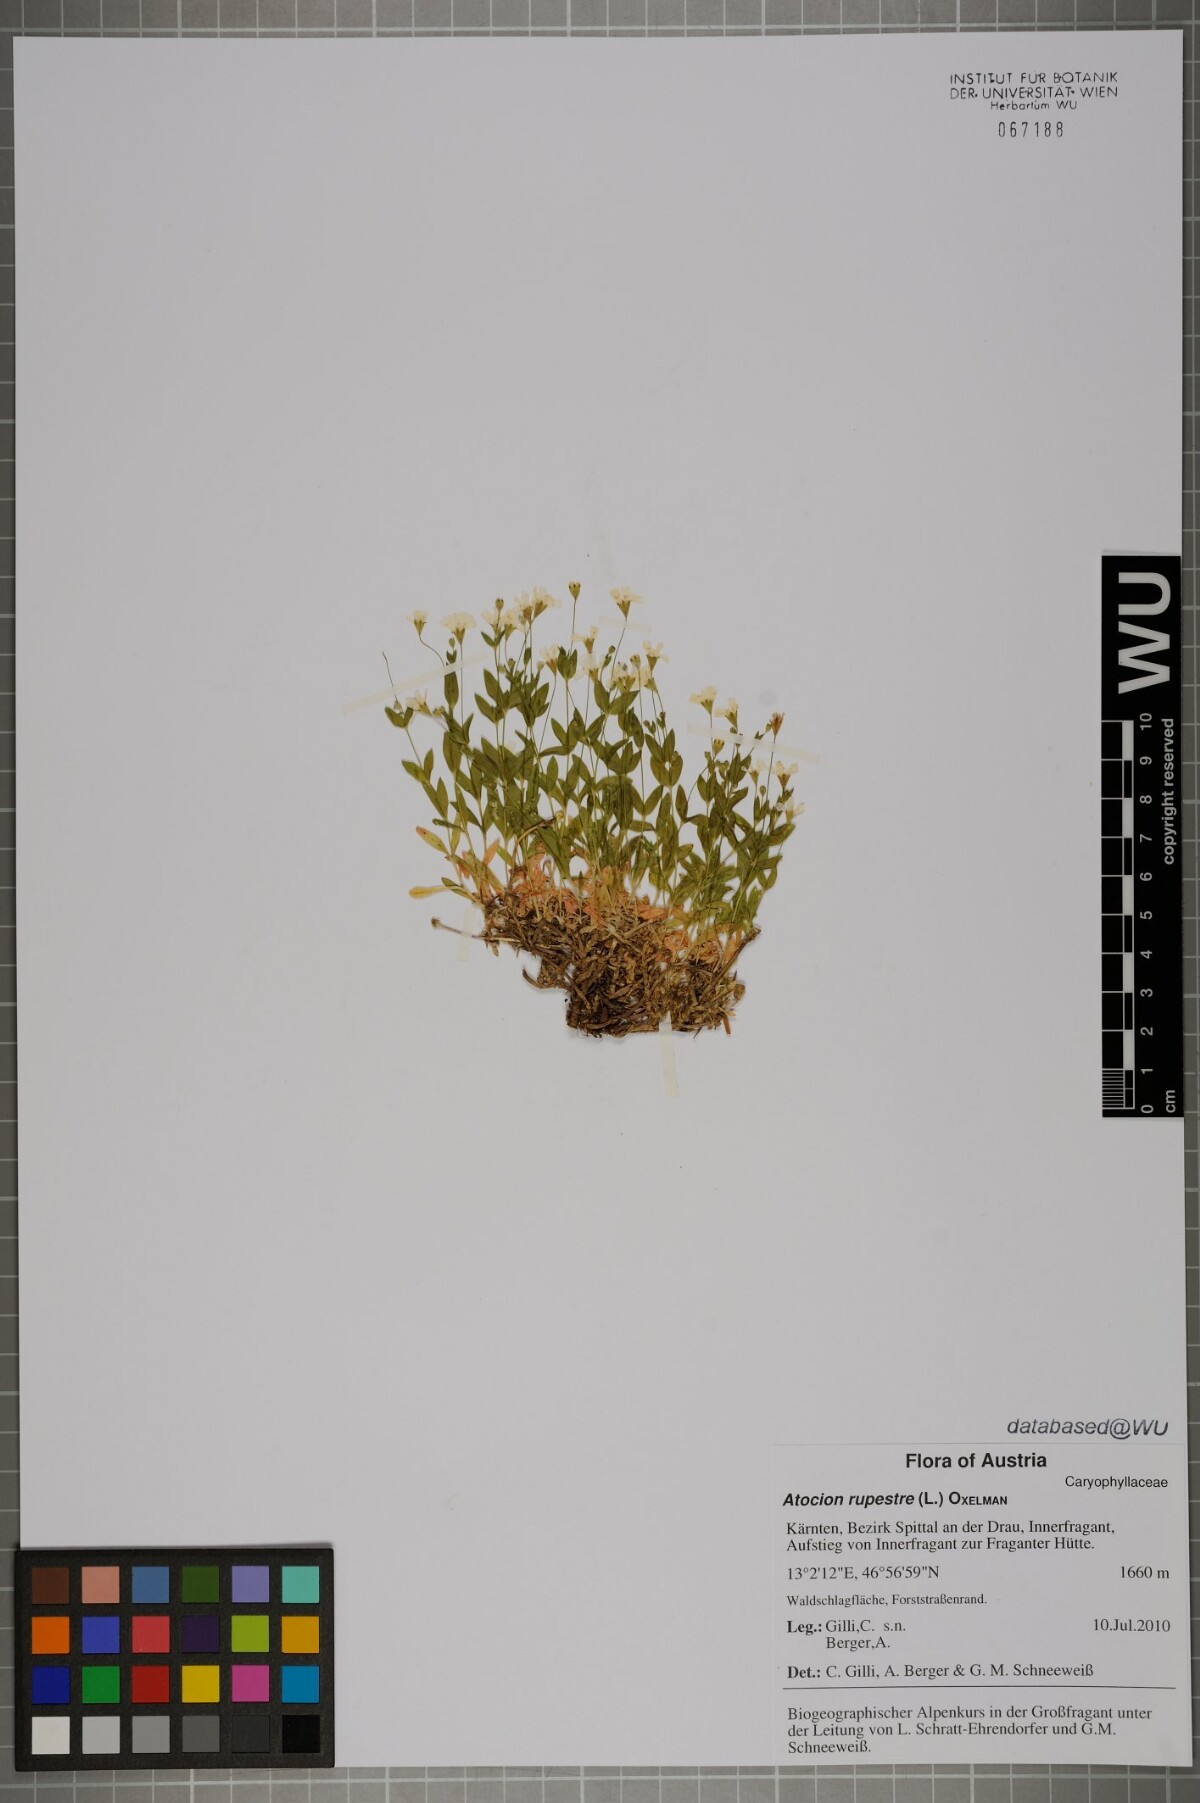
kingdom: Plantae
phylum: Tracheophyta
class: Magnoliopsida
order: Caryophyllales
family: Caryophyllaceae
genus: Atocion
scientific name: Atocion rupestre
